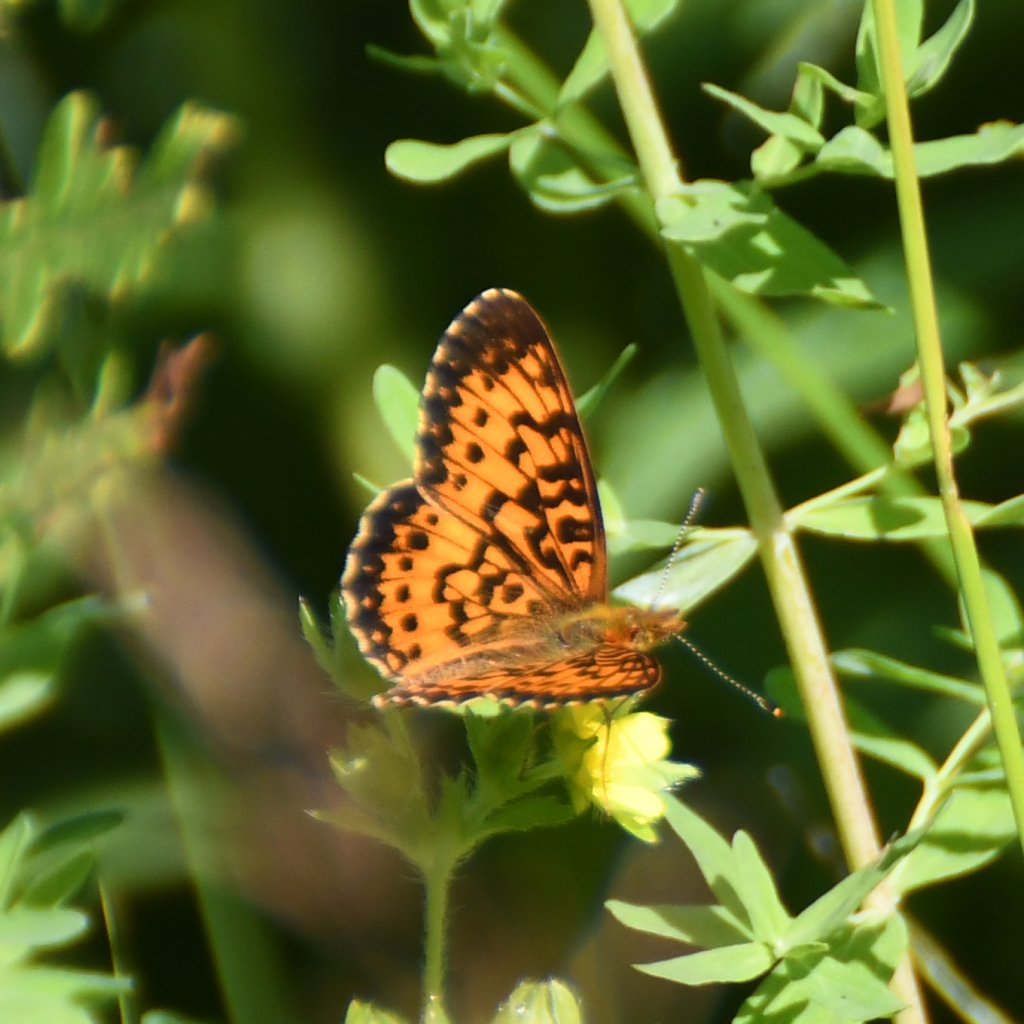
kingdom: Animalia
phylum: Arthropoda
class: Insecta
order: Lepidoptera
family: Nymphalidae
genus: Boloria
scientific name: Boloria selene
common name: Silver-bordered Fritillary
